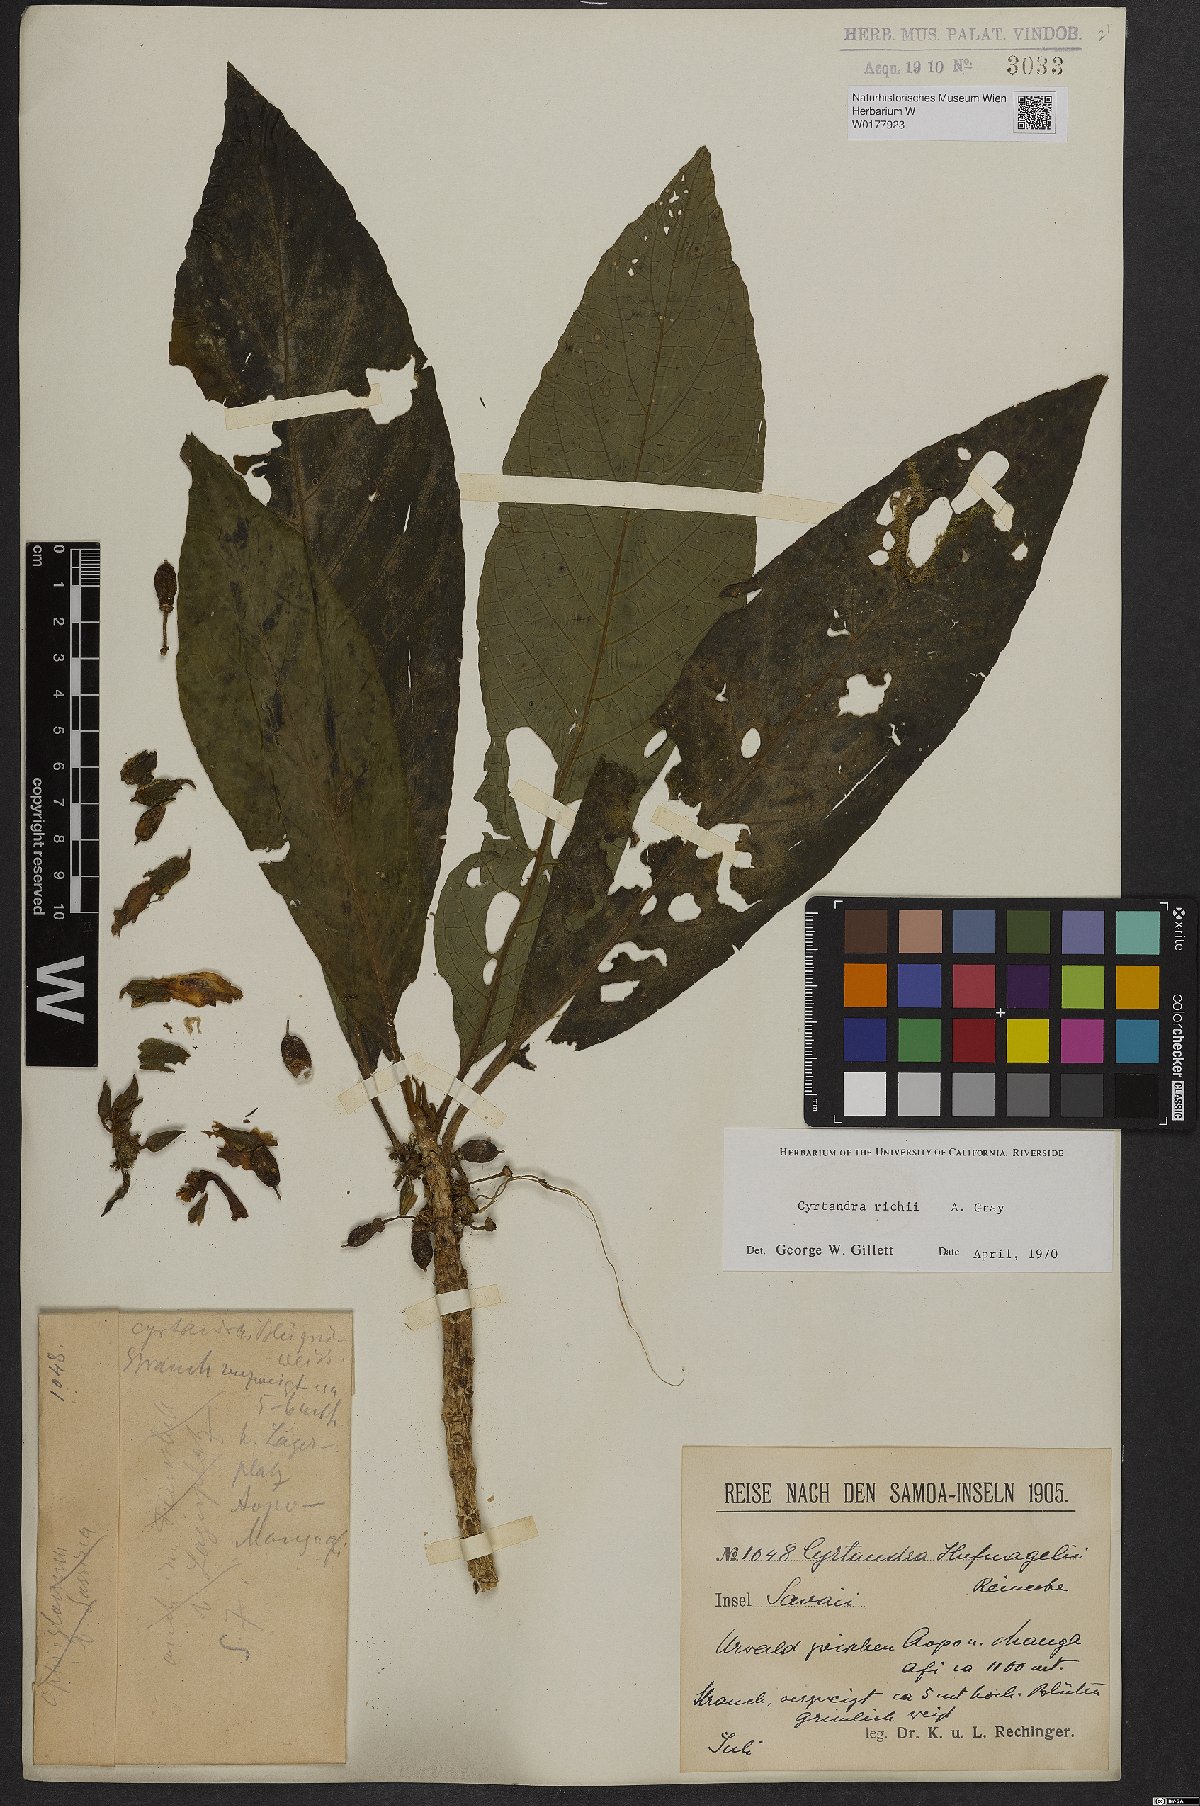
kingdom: Plantae
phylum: Tracheophyta
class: Magnoliopsida
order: Lamiales
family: Gesneriaceae
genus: Cyrtandra
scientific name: Cyrtandra richii
